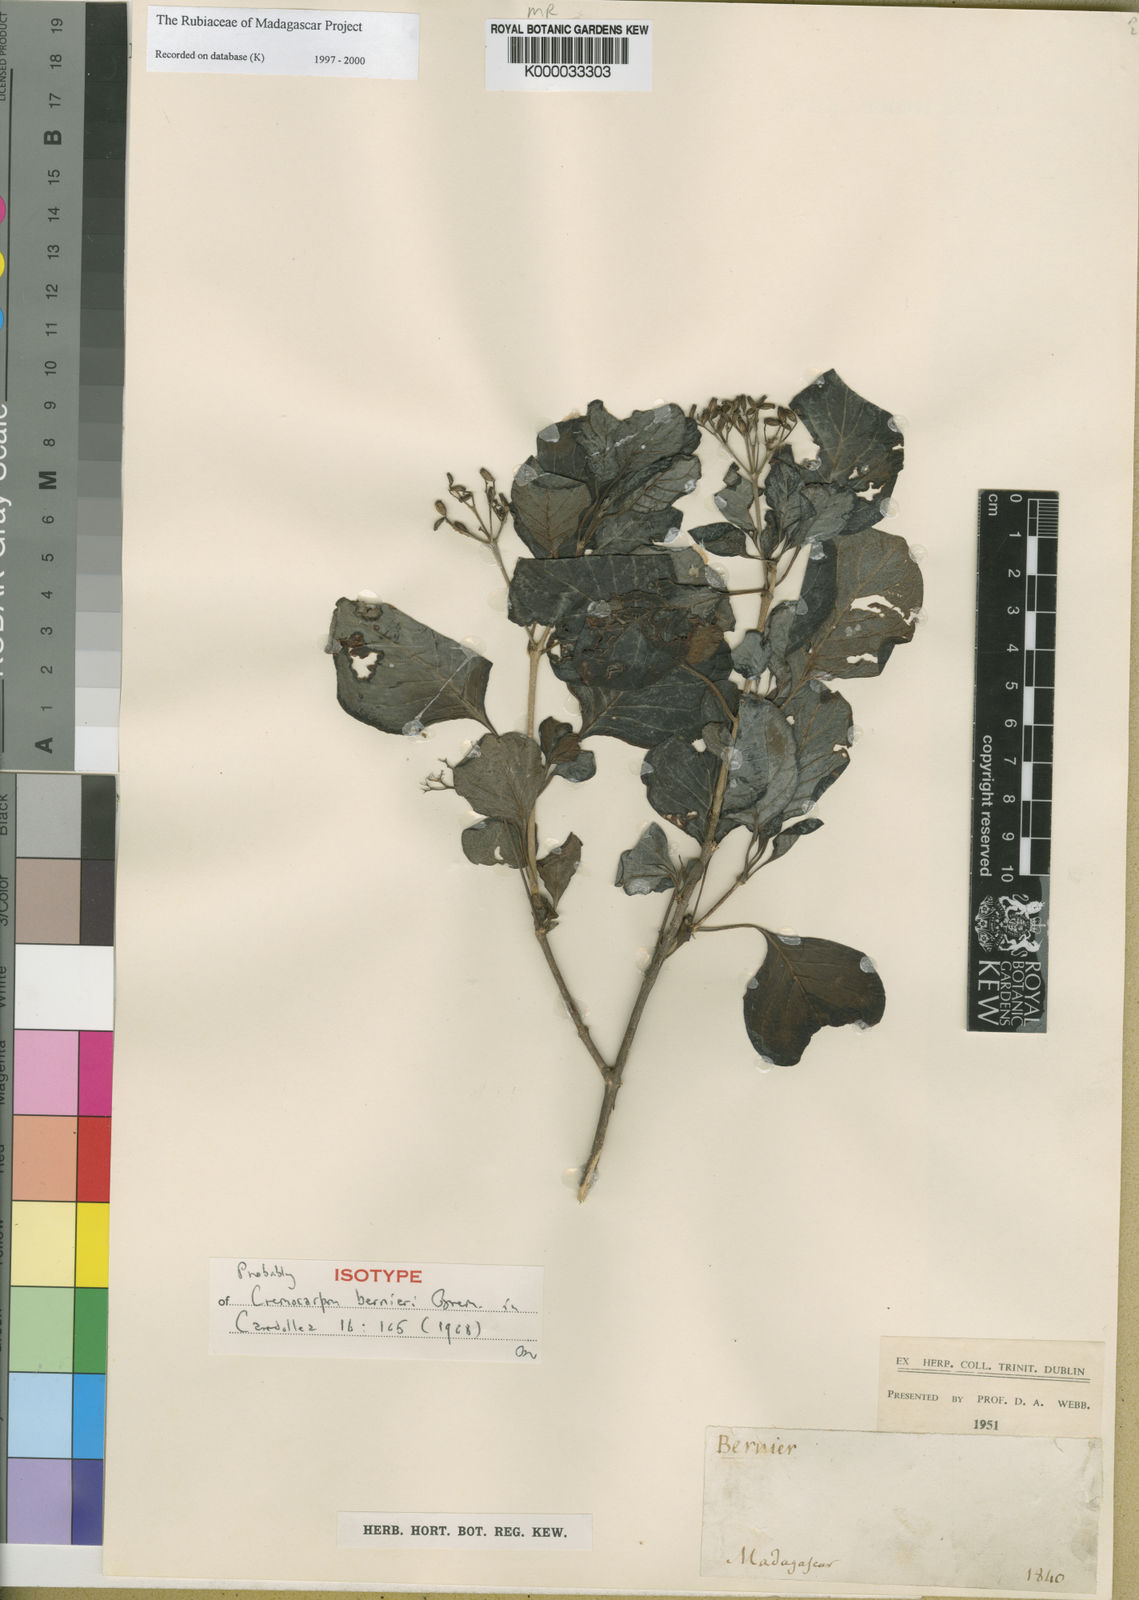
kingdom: Plantae
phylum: Tracheophyta
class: Magnoliopsida
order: Gentianales
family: Rubiaceae
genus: Psychotria
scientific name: Psychotria bernieri
